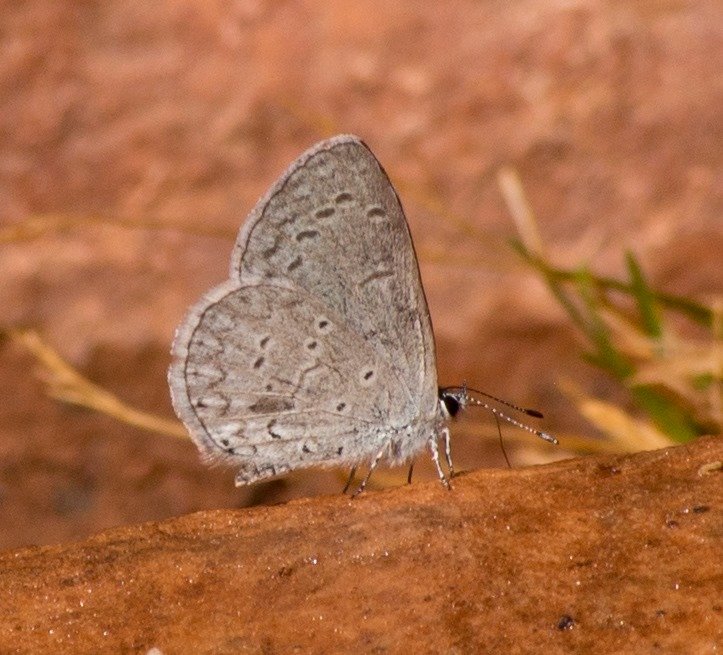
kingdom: Animalia
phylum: Arthropoda
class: Insecta
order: Lepidoptera
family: Lycaenidae
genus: Celastrina
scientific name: Celastrina ladon
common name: Echo Azure
